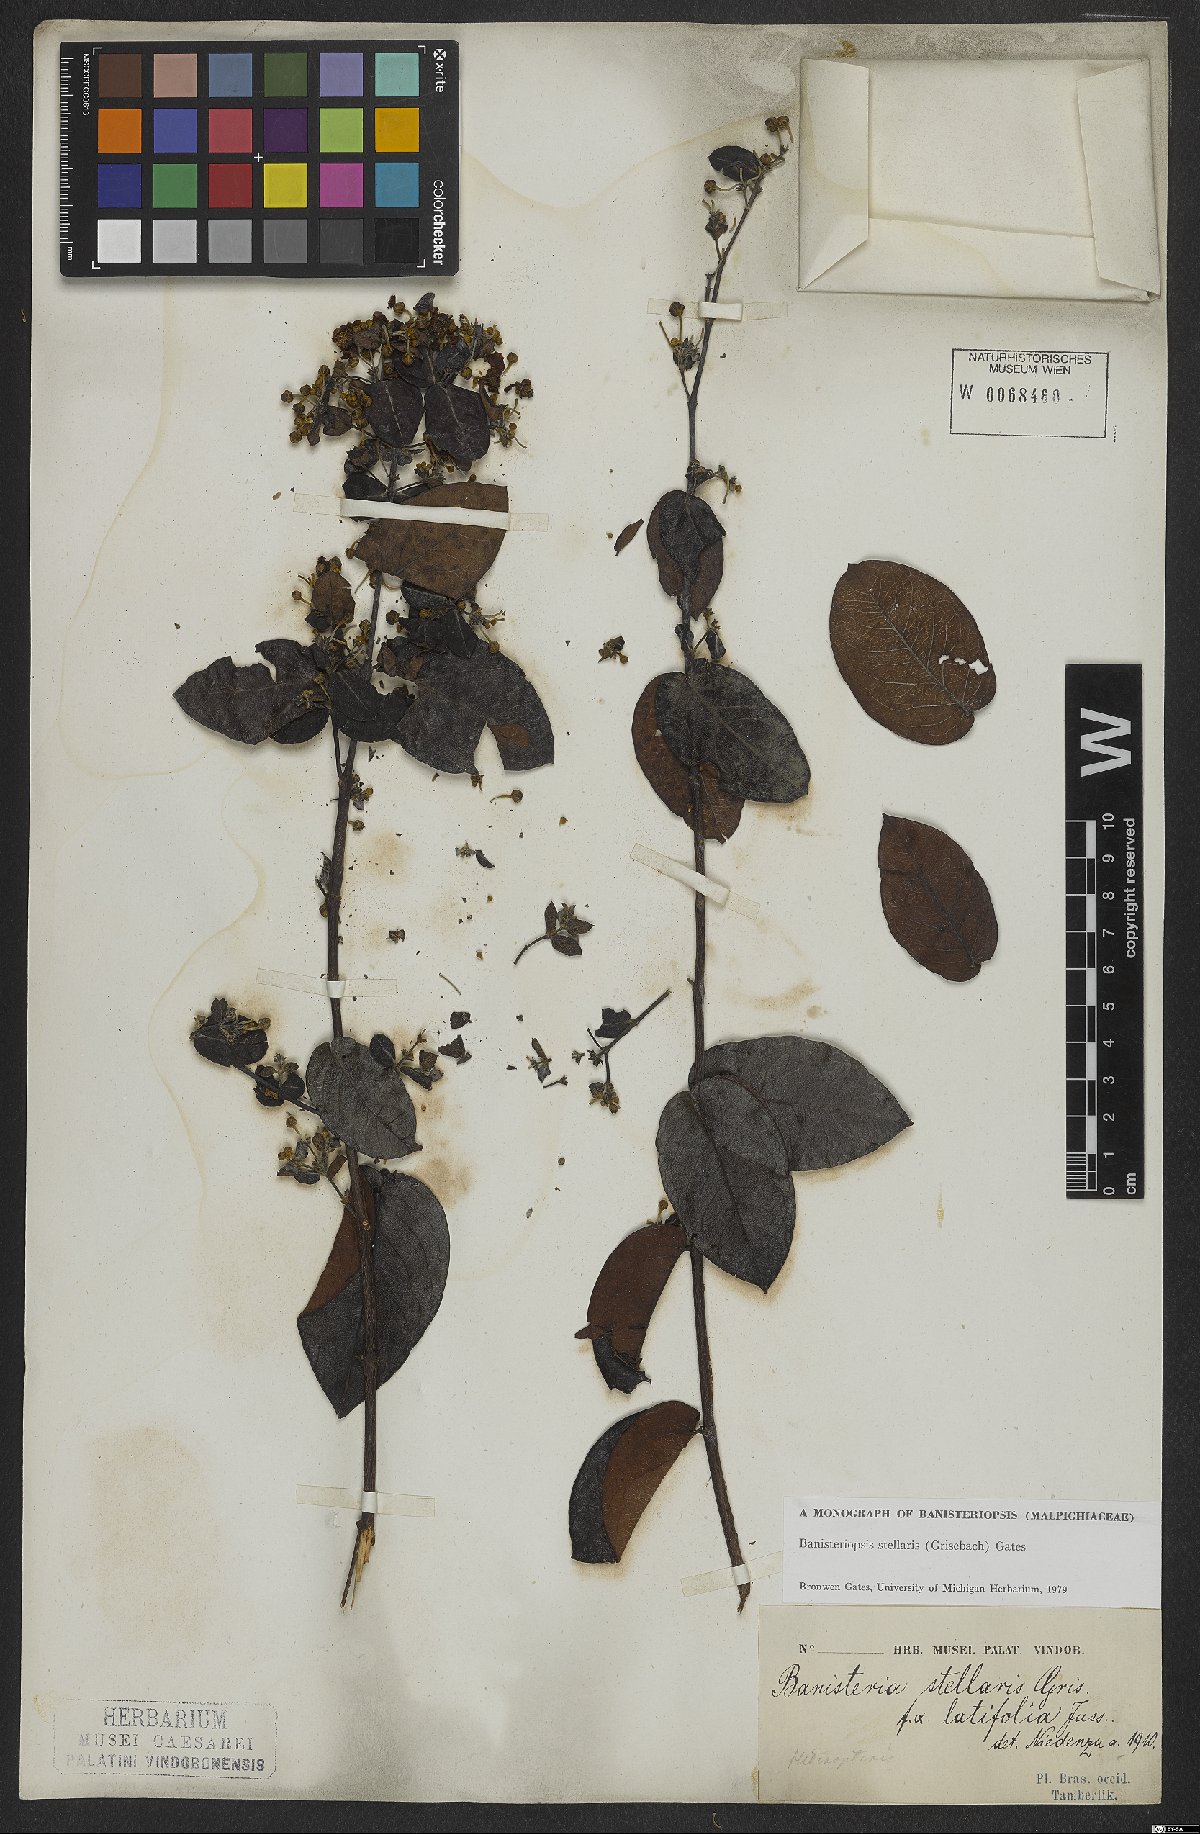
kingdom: Plantae
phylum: Tracheophyta
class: Magnoliopsida
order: Malpighiales
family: Malpighiaceae
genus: Banisteriopsis
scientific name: Banisteriopsis stellaris
